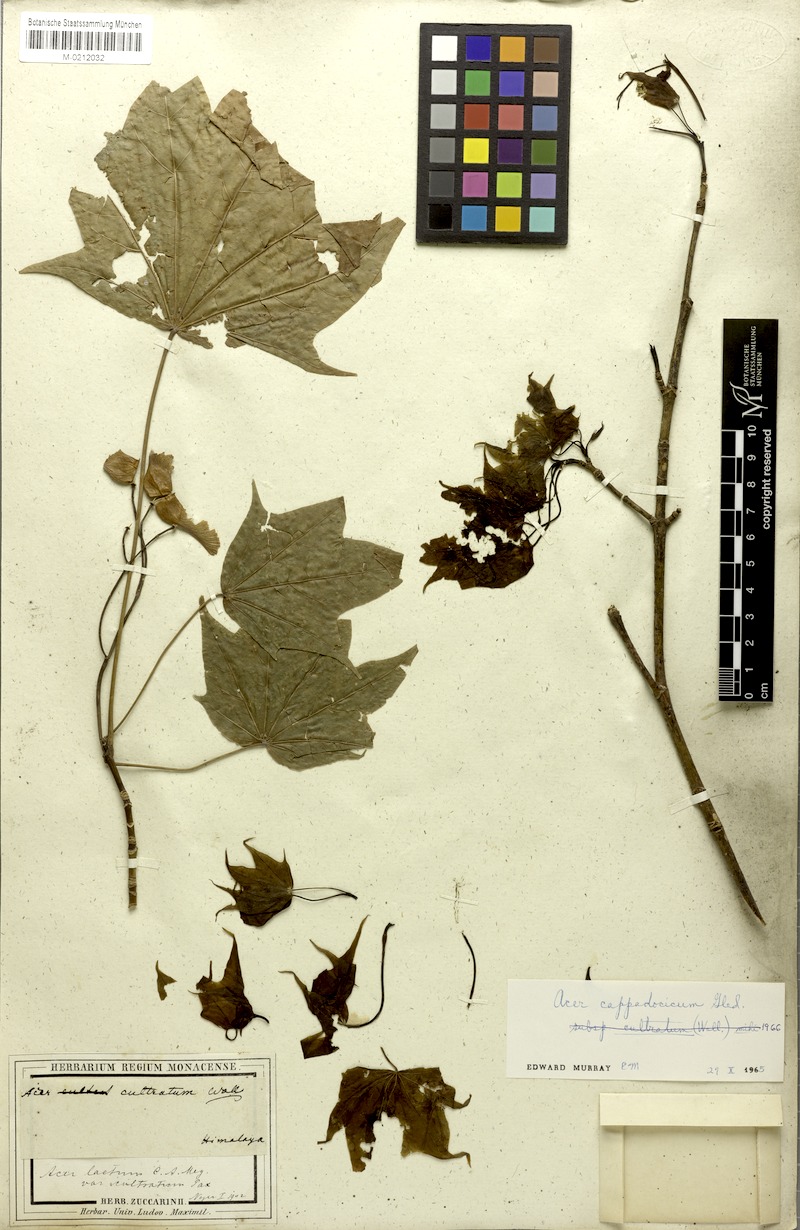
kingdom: Plantae
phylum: Tracheophyta
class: Magnoliopsida
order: Sapindales
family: Sapindaceae
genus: Acer
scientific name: Acer cappadocicum
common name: Cappadocian maple
